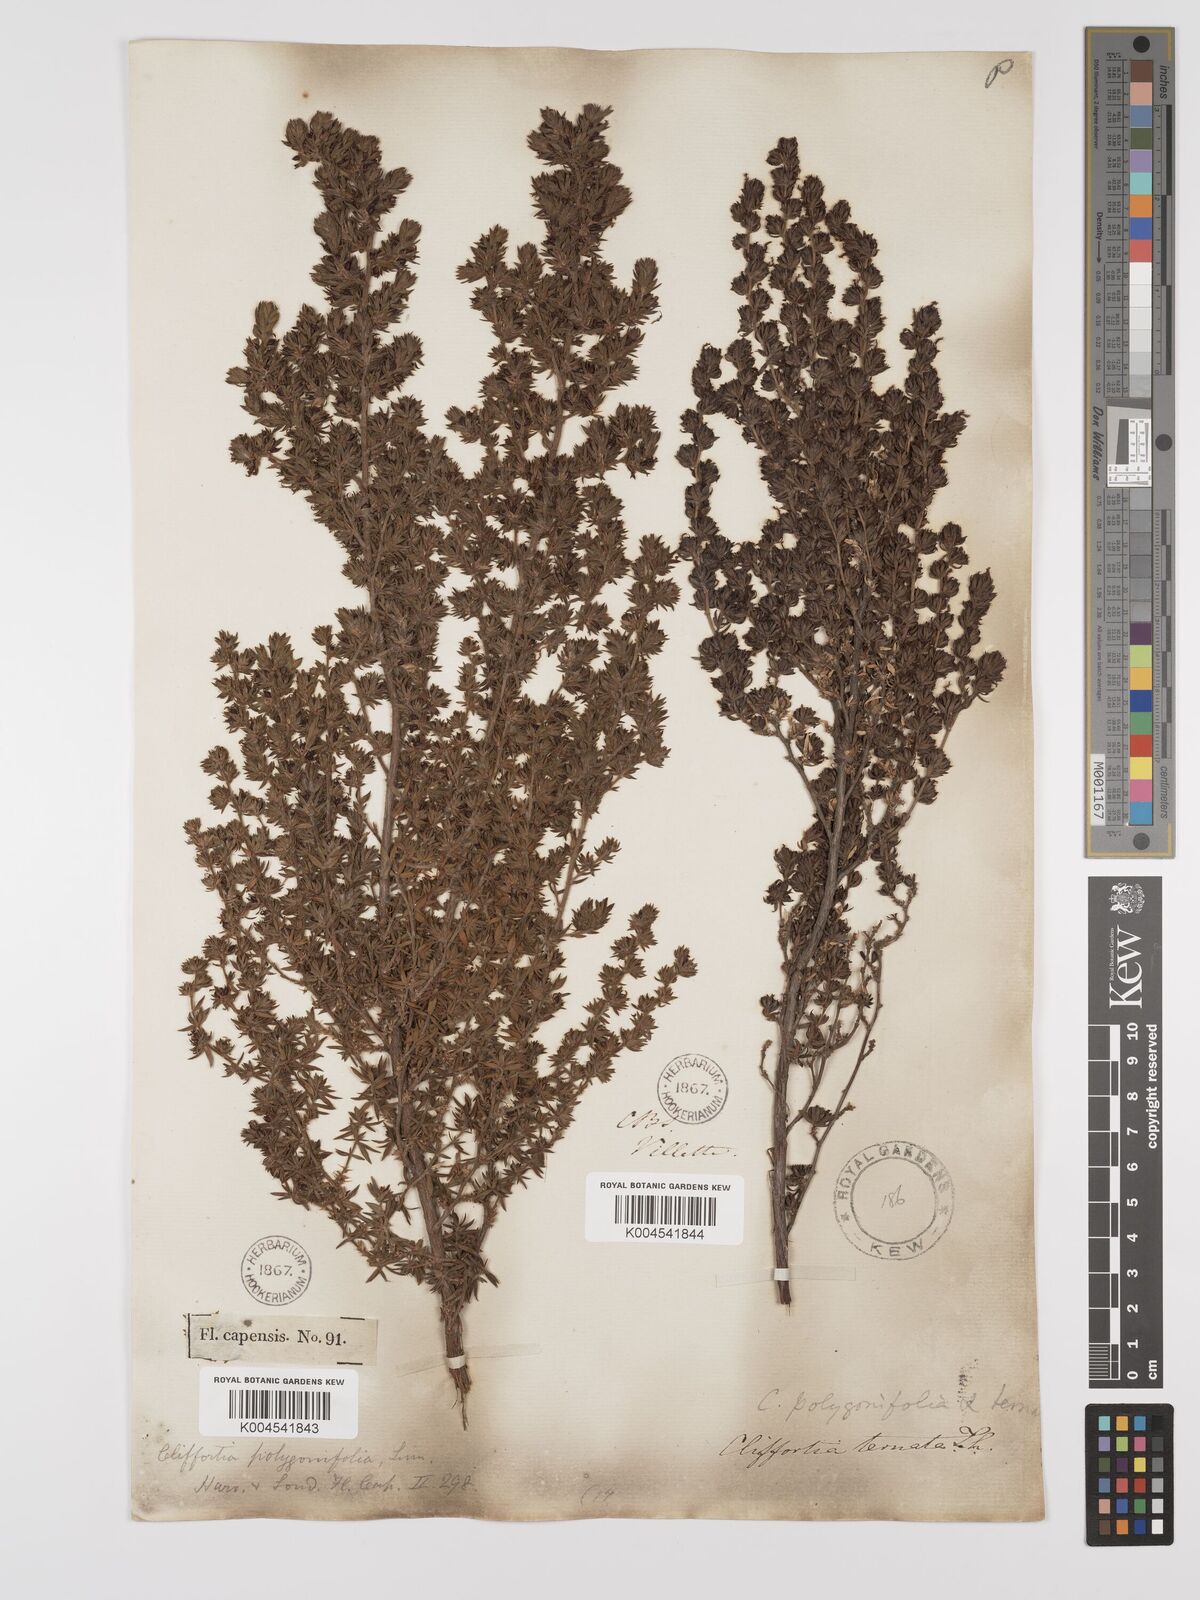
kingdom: Plantae
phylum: Tracheophyta
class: Magnoliopsida
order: Rosales
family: Rosaceae
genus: Cliffortia
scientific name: Cliffortia polygonifolia
